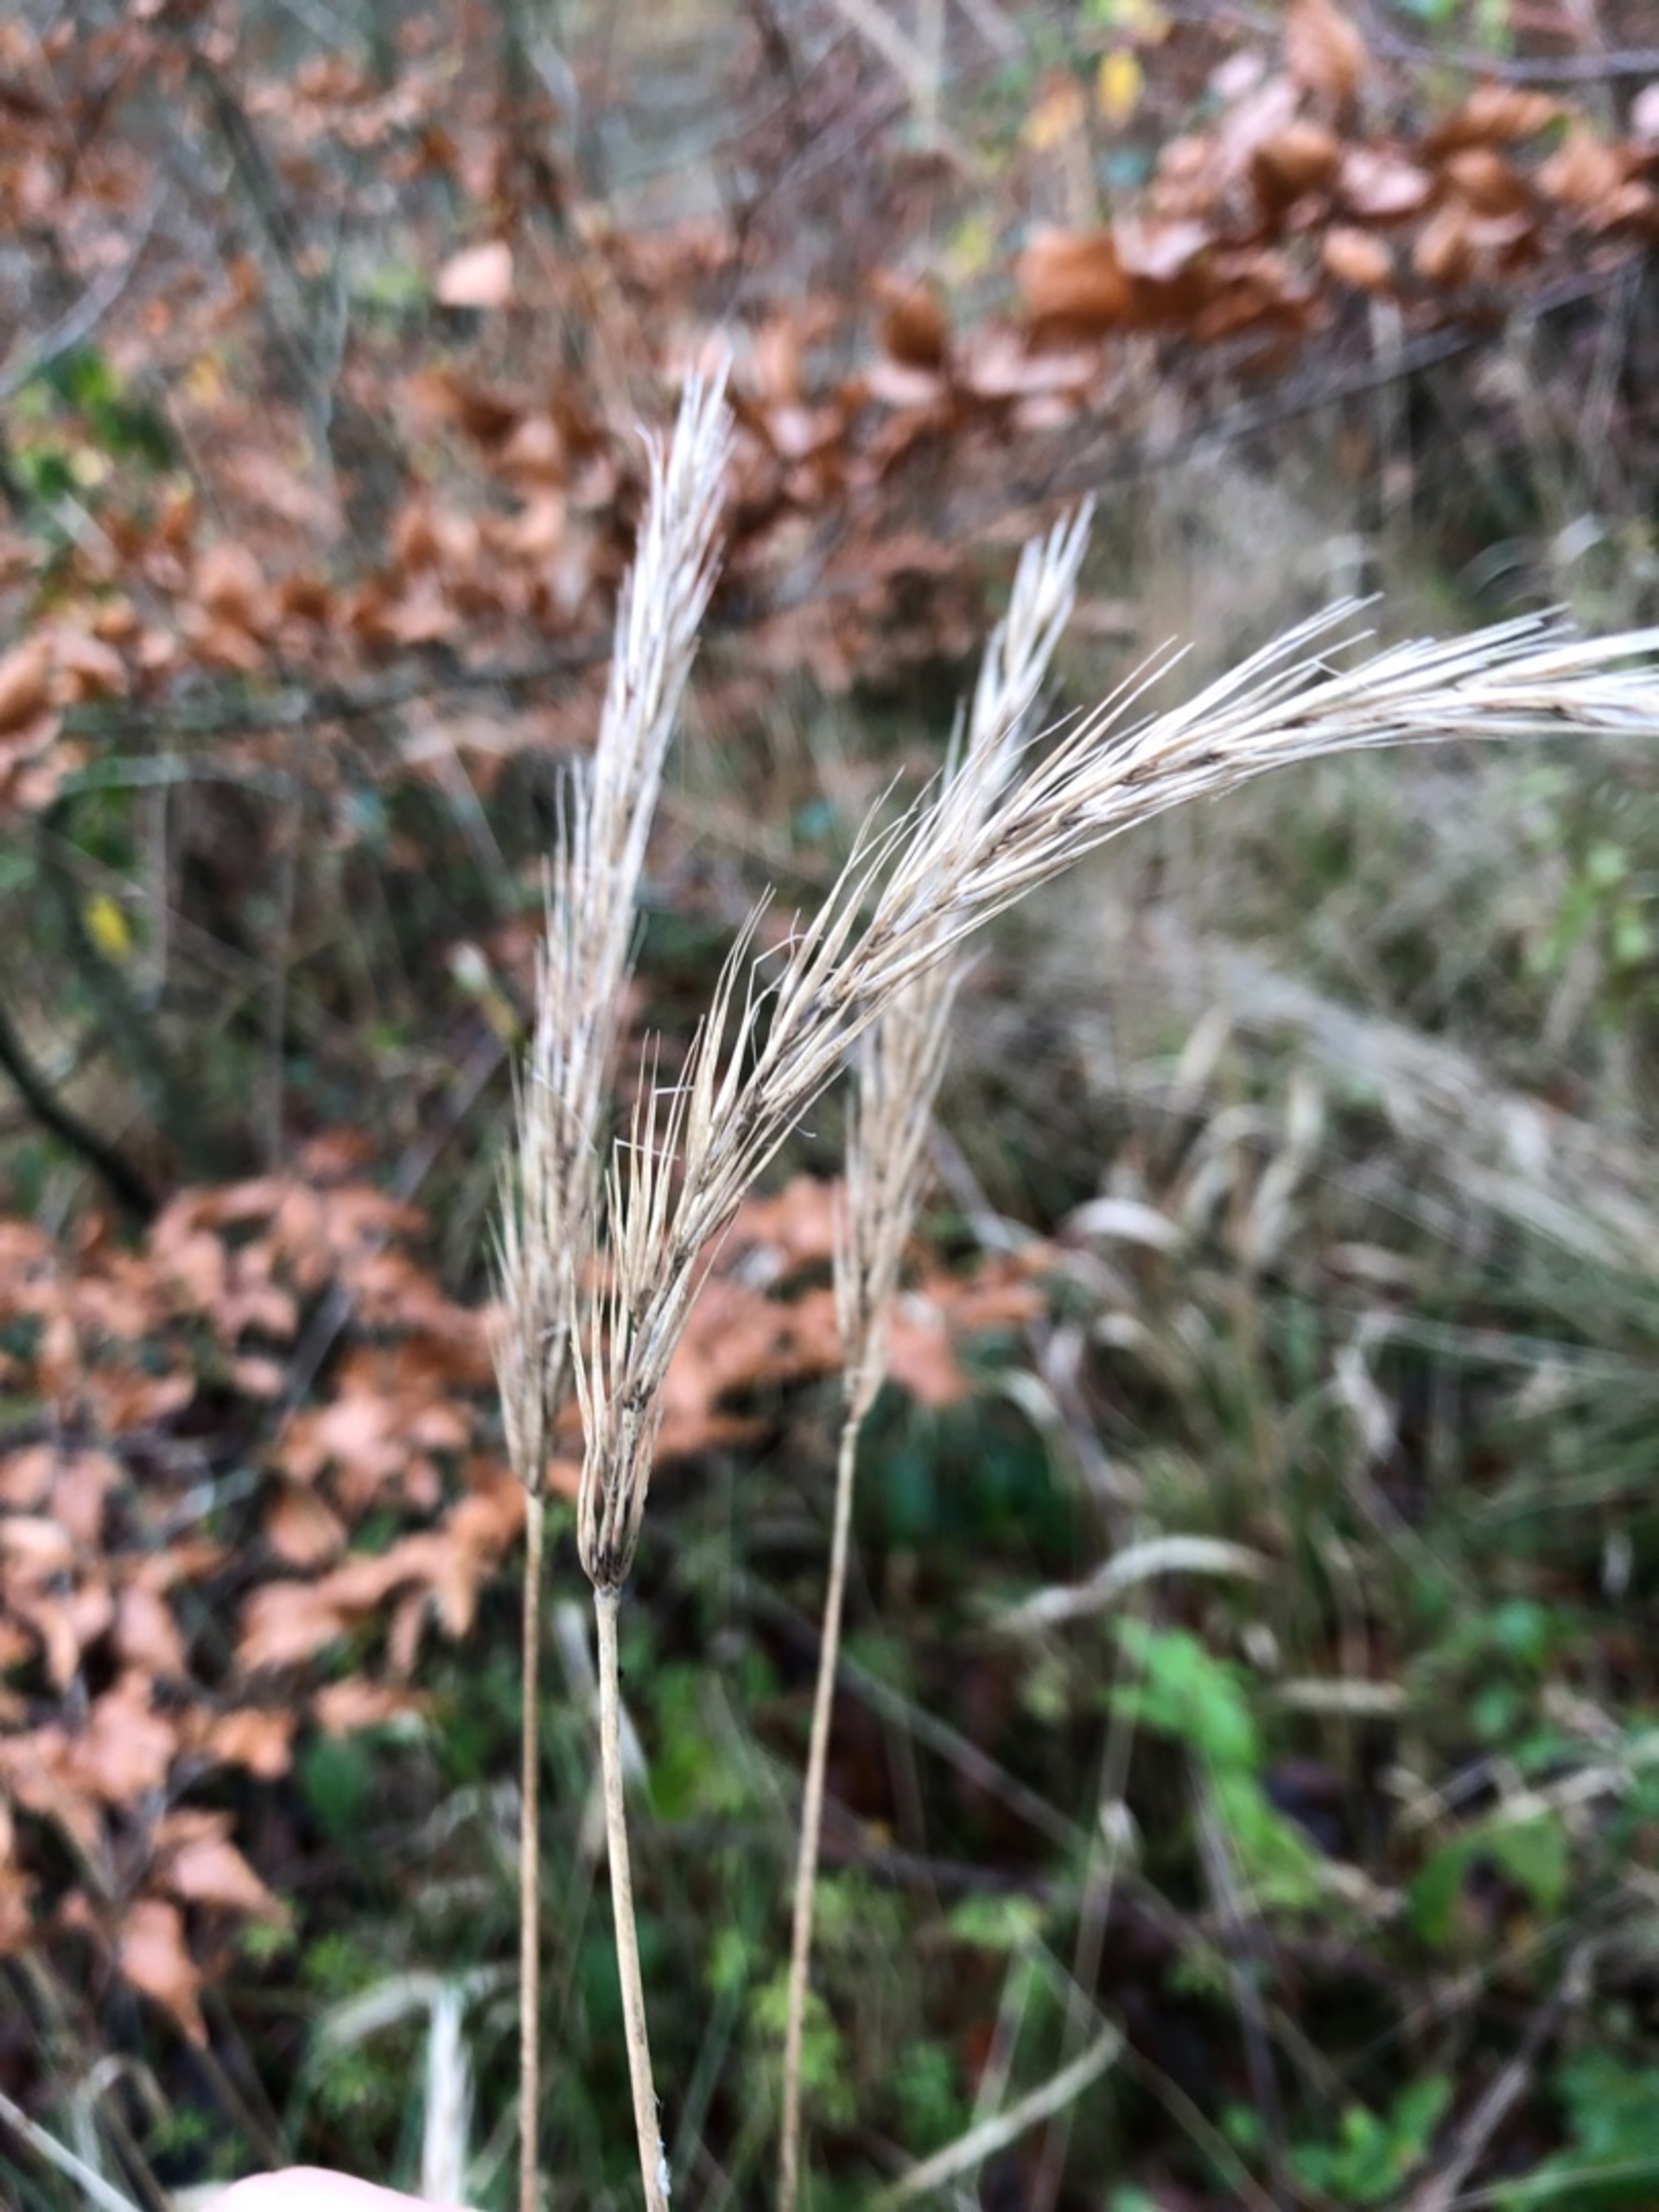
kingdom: Plantae
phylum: Tracheophyta
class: Liliopsida
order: Poales
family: Poaceae
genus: Hordelymus
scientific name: Hordelymus europaeus
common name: Skovbyg
